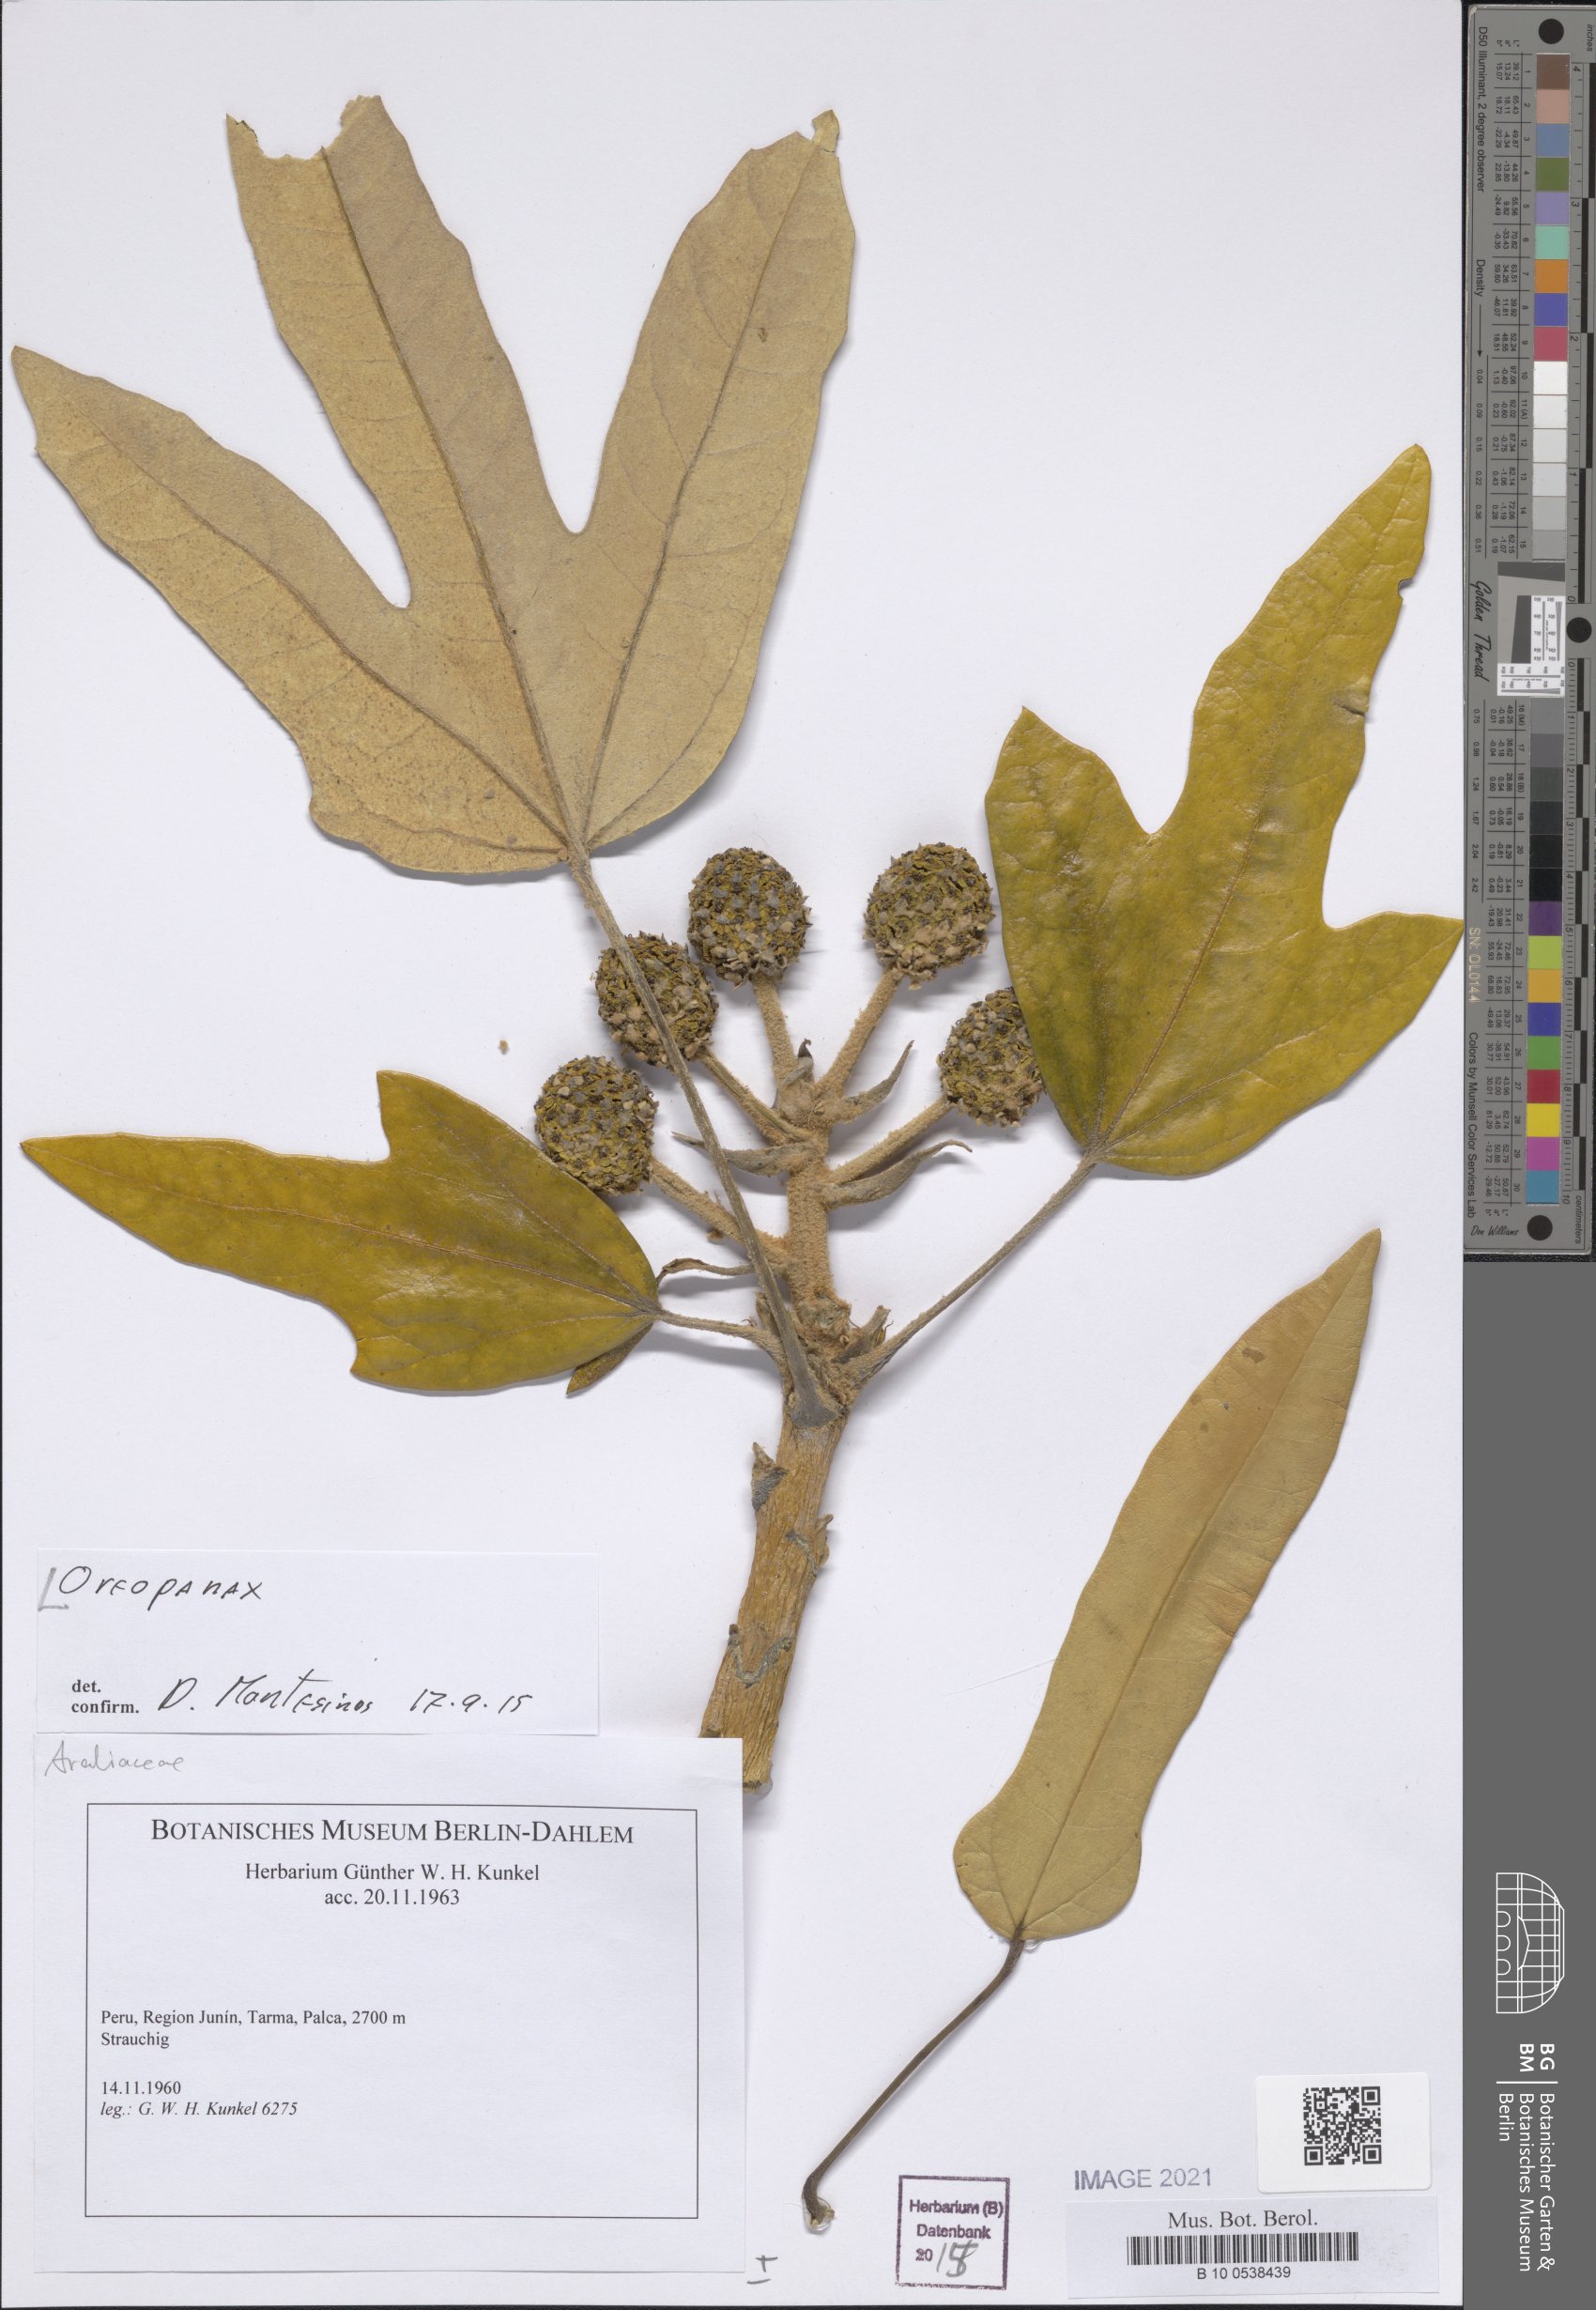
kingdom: Plantae
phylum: Tracheophyta
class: Magnoliopsida
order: Apiales
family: Araliaceae
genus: Oreopanax
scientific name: Oreopanax
